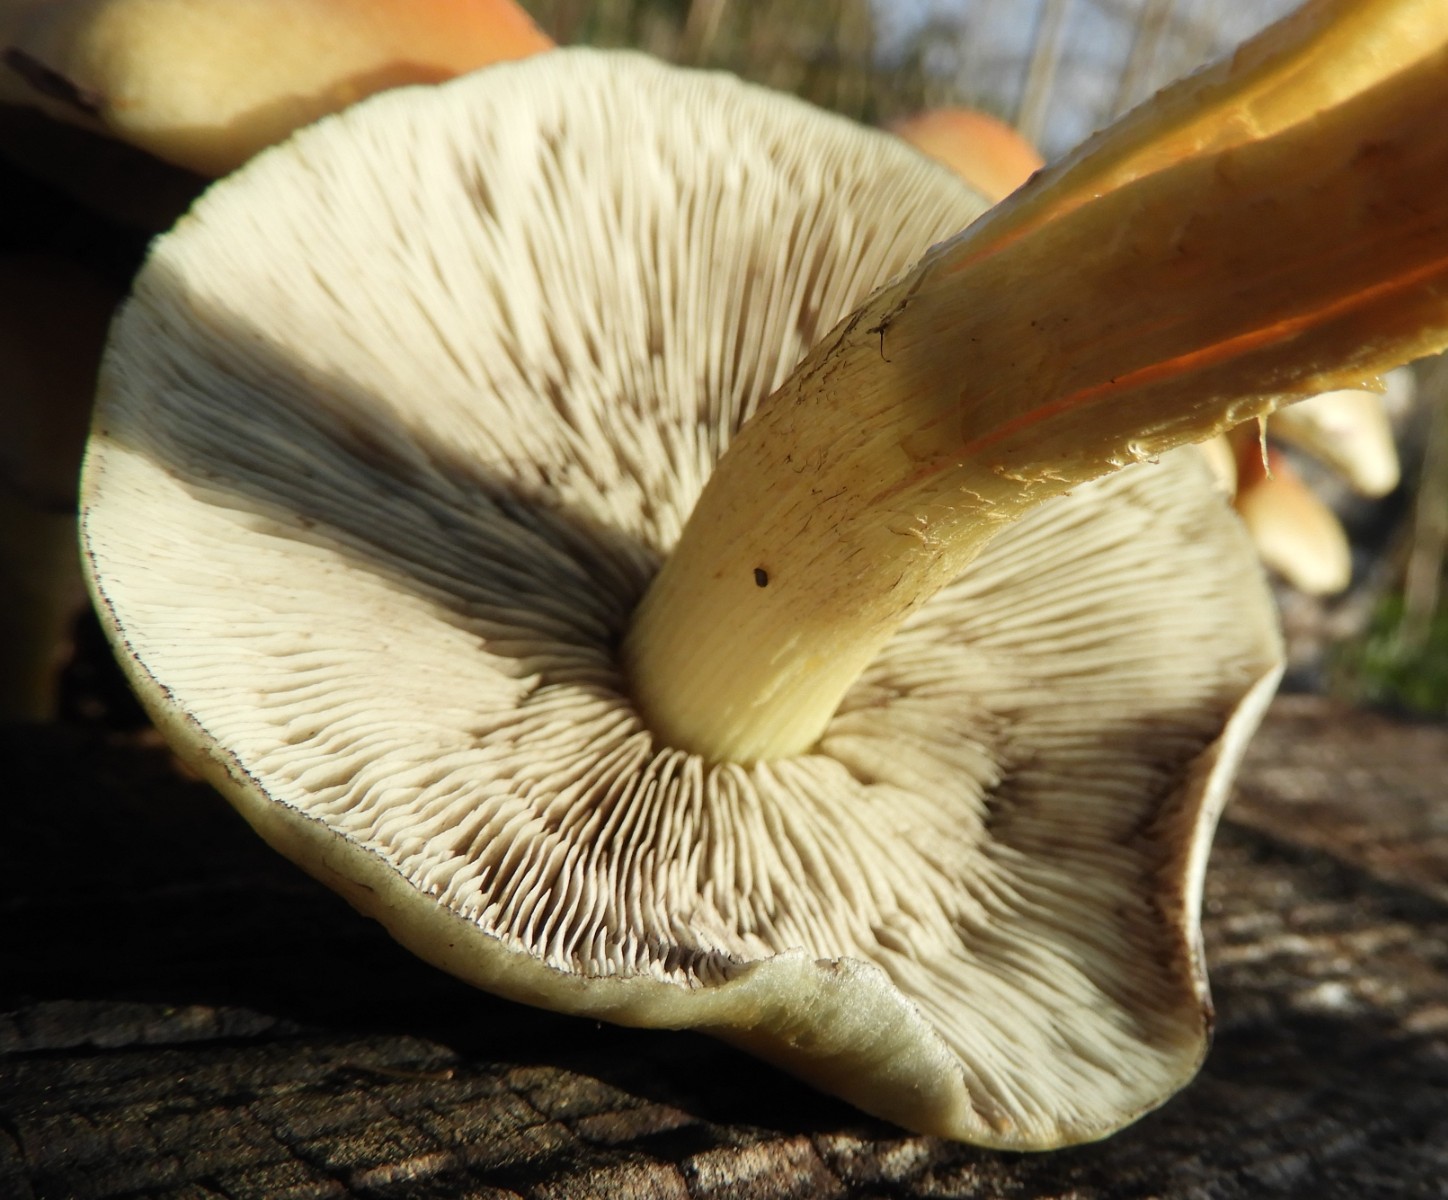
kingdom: Fungi
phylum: Basidiomycota
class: Agaricomycetes
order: Agaricales
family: Strophariaceae
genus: Hypholoma
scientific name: Hypholoma fasciculare
